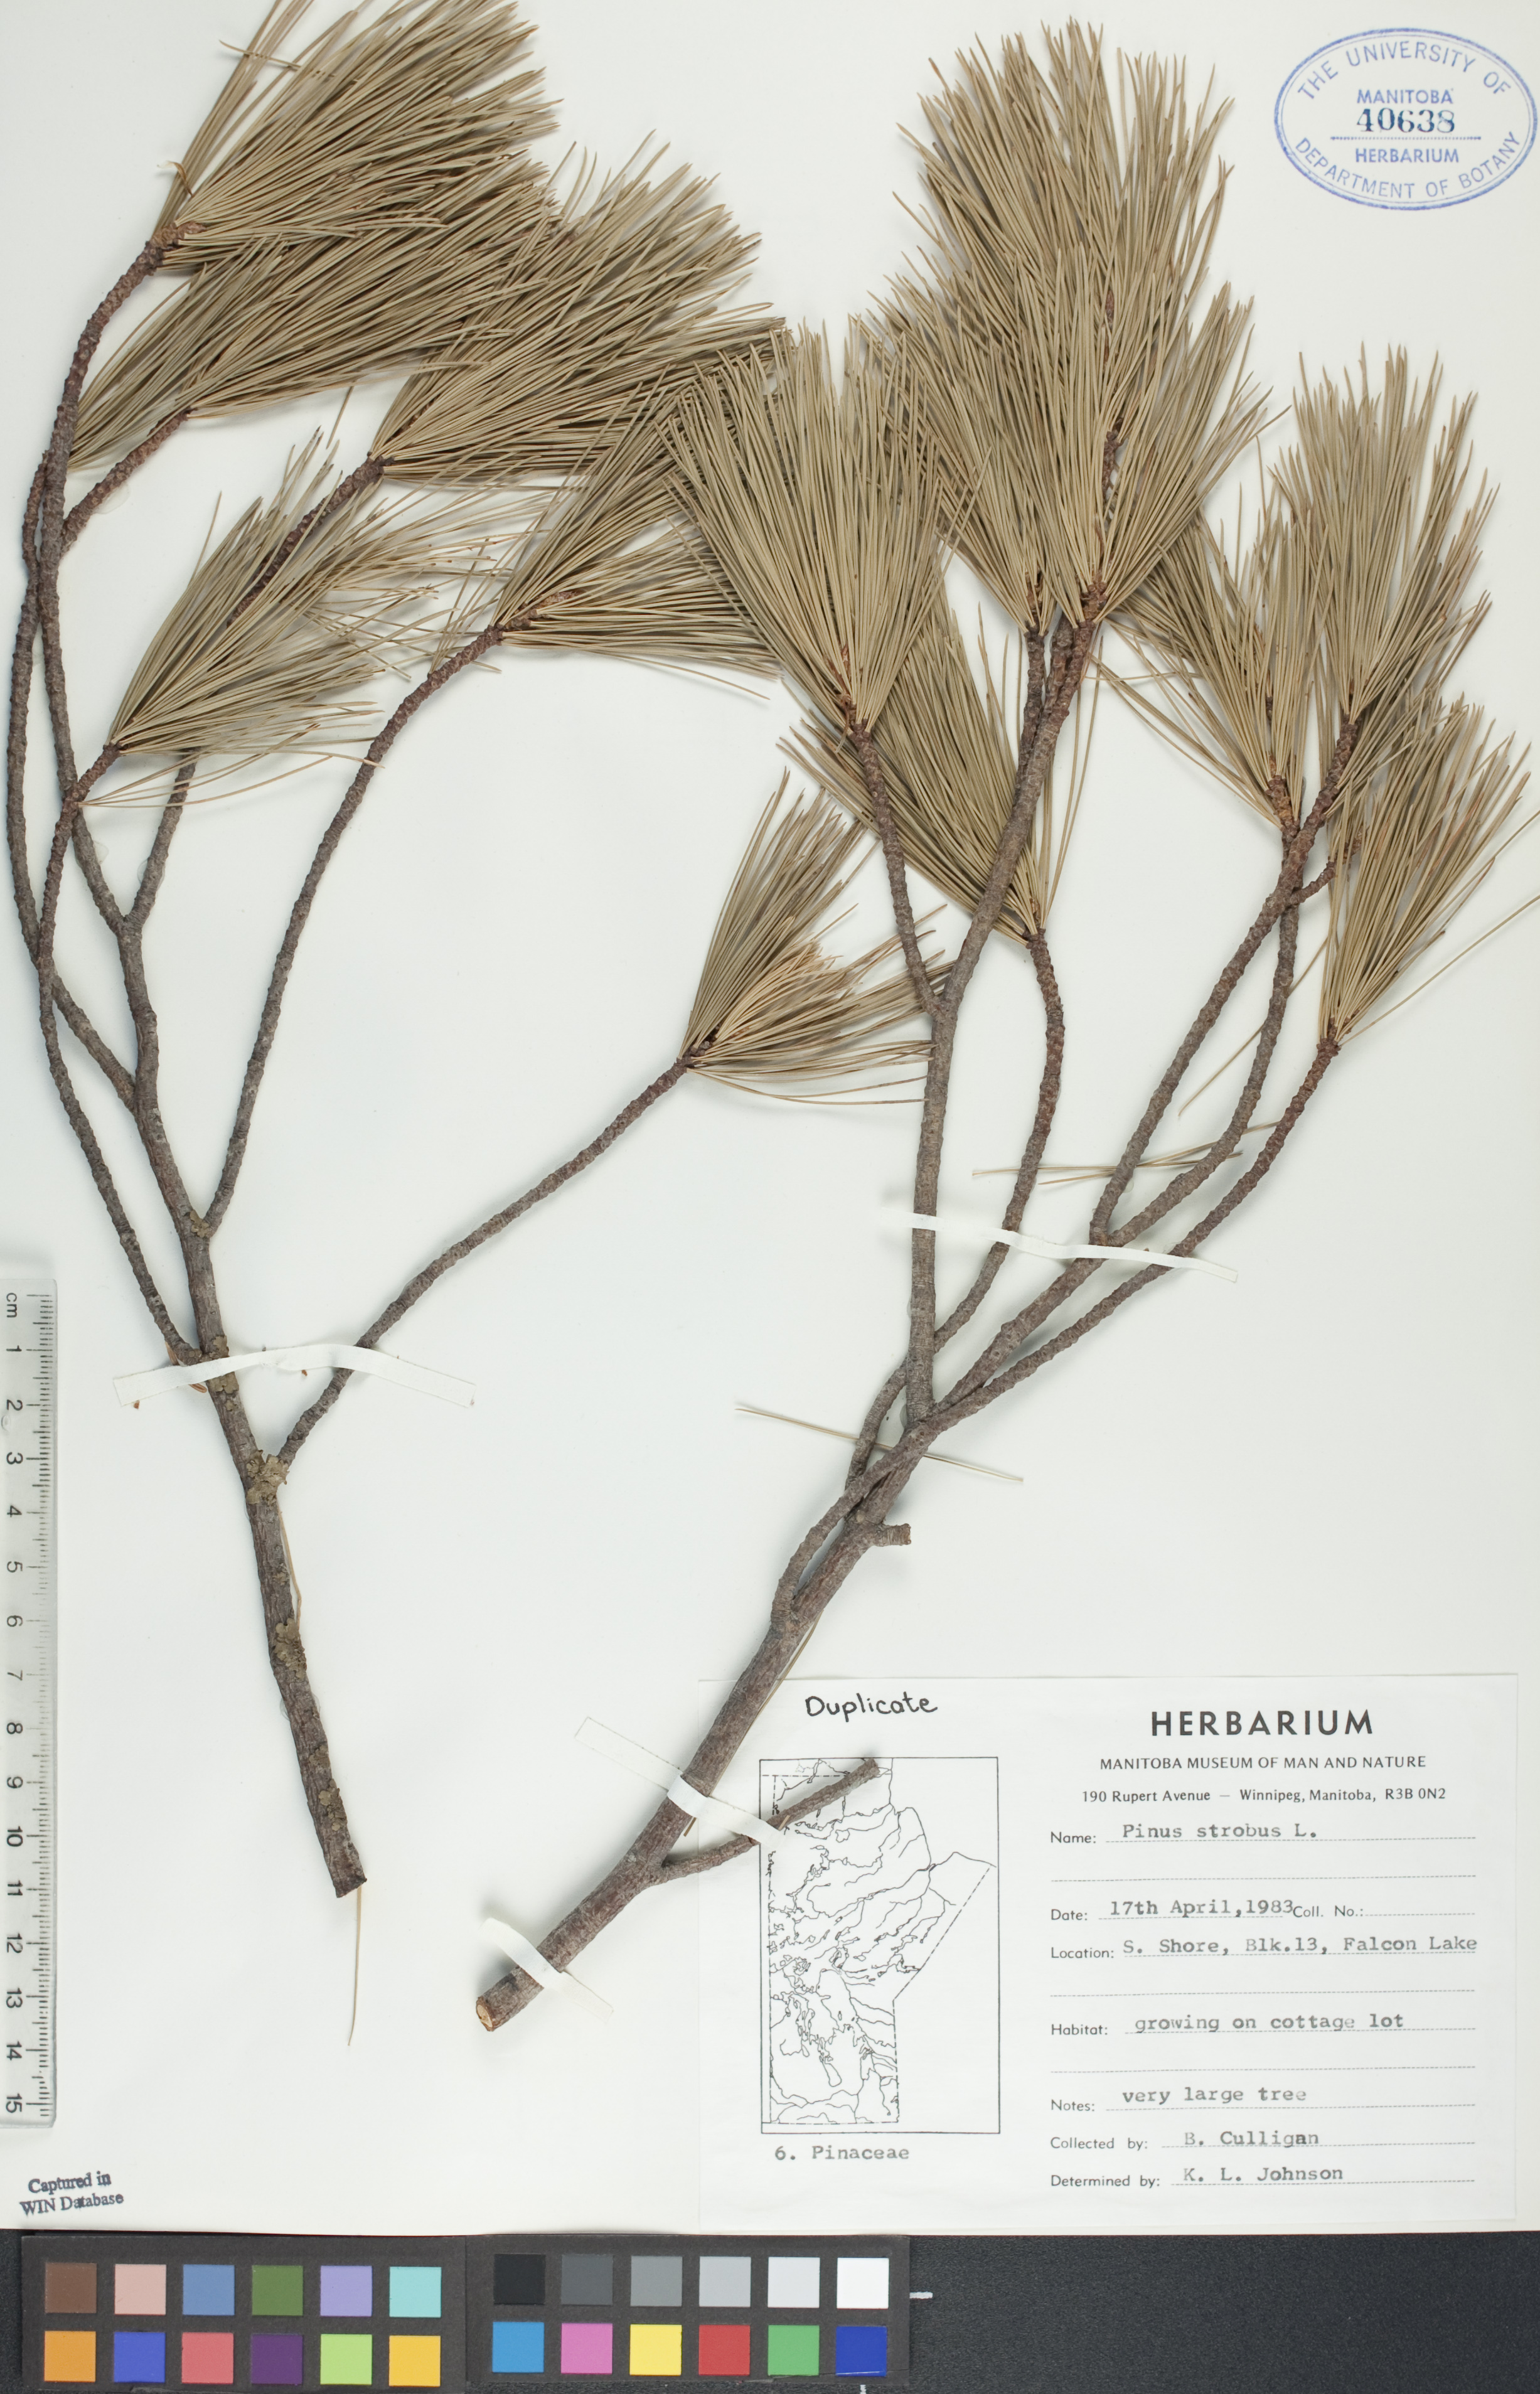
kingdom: Plantae
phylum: Tracheophyta
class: Pinopsida
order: Pinales
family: Pinaceae
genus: Pinus
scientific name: Pinus strobus
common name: Weymouth pine
